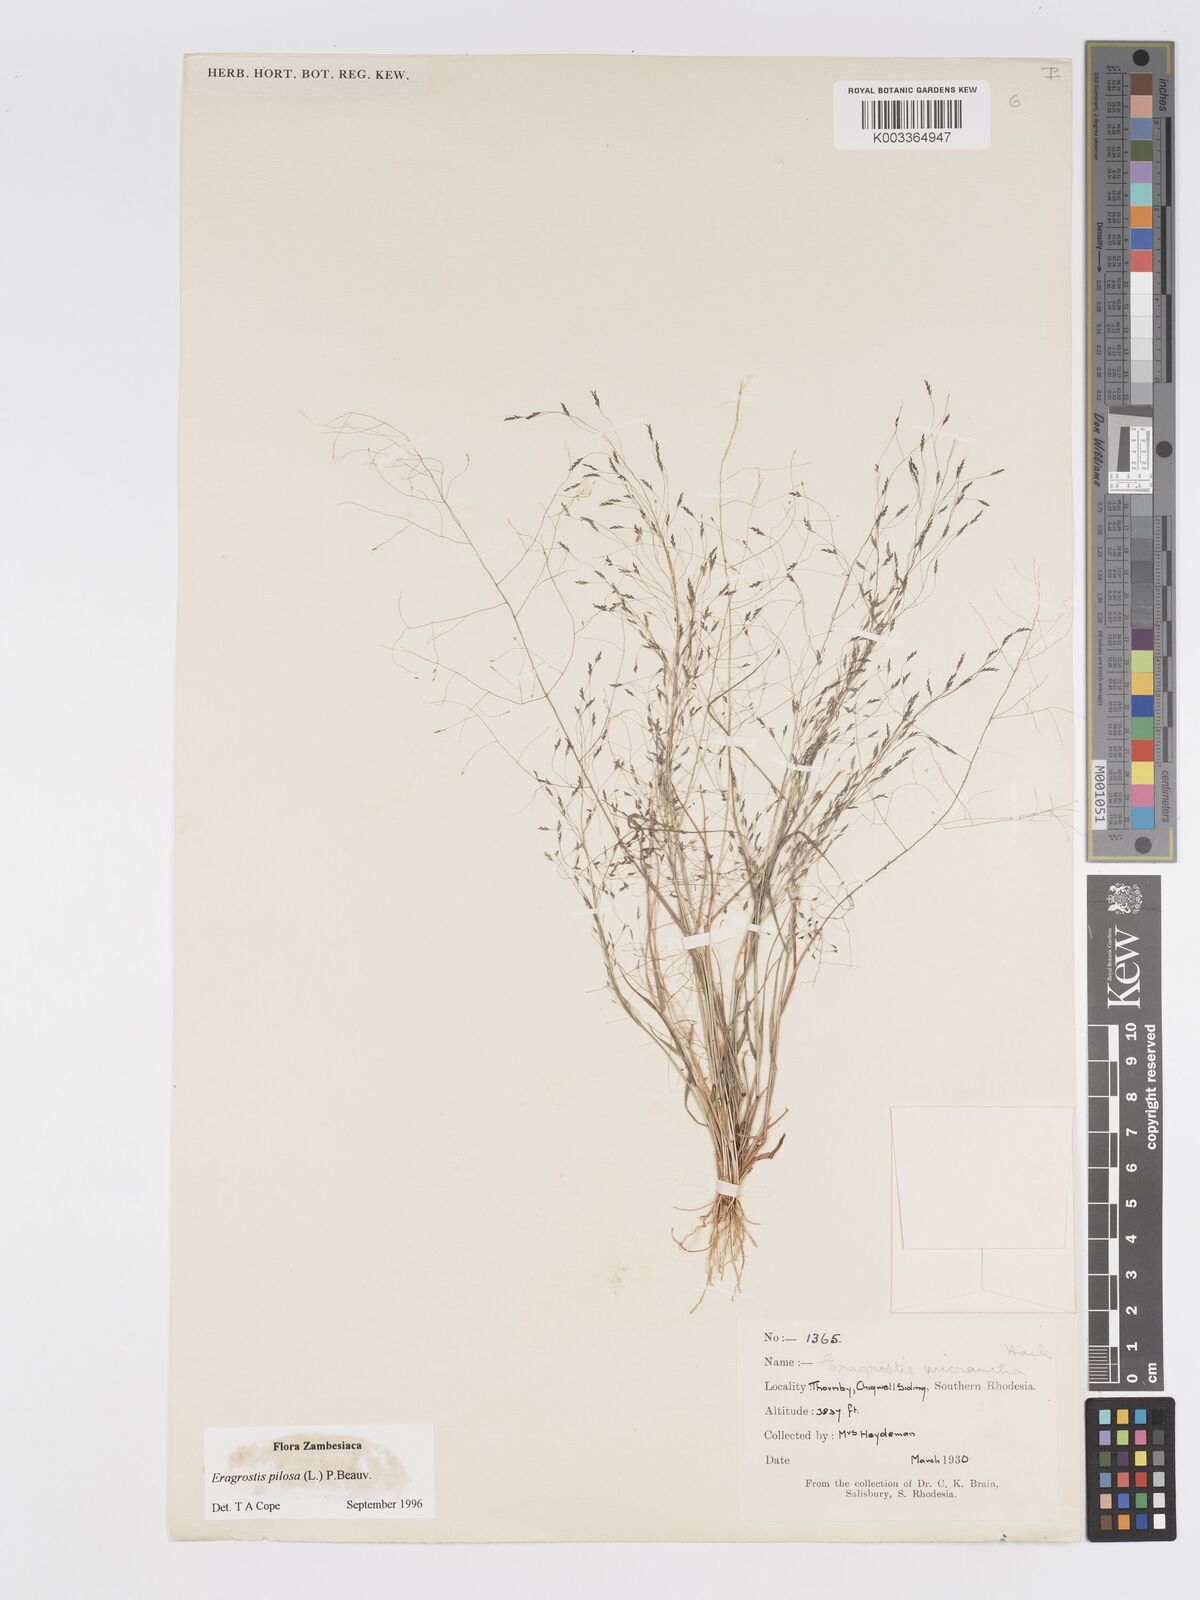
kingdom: Plantae
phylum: Tracheophyta
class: Liliopsida
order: Poales
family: Poaceae
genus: Eragrostis
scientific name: Eragrostis pilosa
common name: Indian lovegrass
